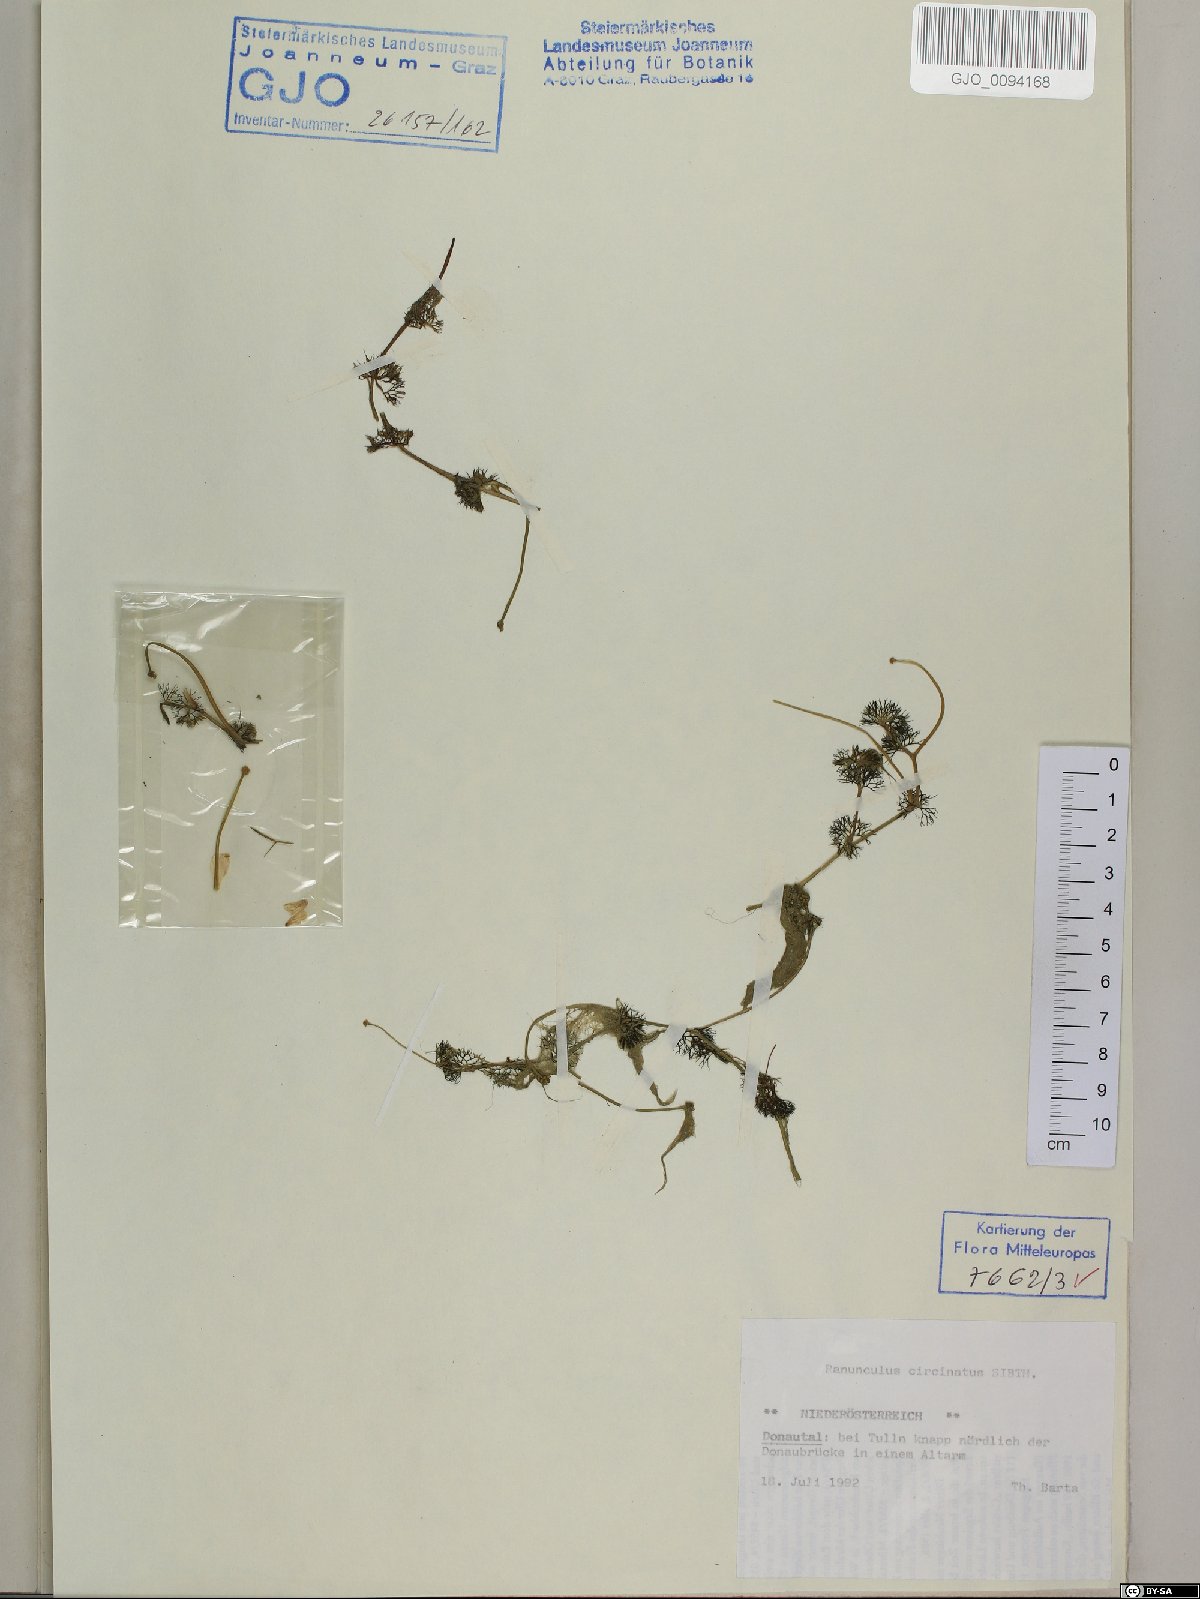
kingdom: Plantae
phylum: Tracheophyta
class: Magnoliopsida
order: Ranunculales
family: Ranunculaceae
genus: Ranunculus
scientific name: Ranunculus circinatus
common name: Fan-leaved water-crowfoot
